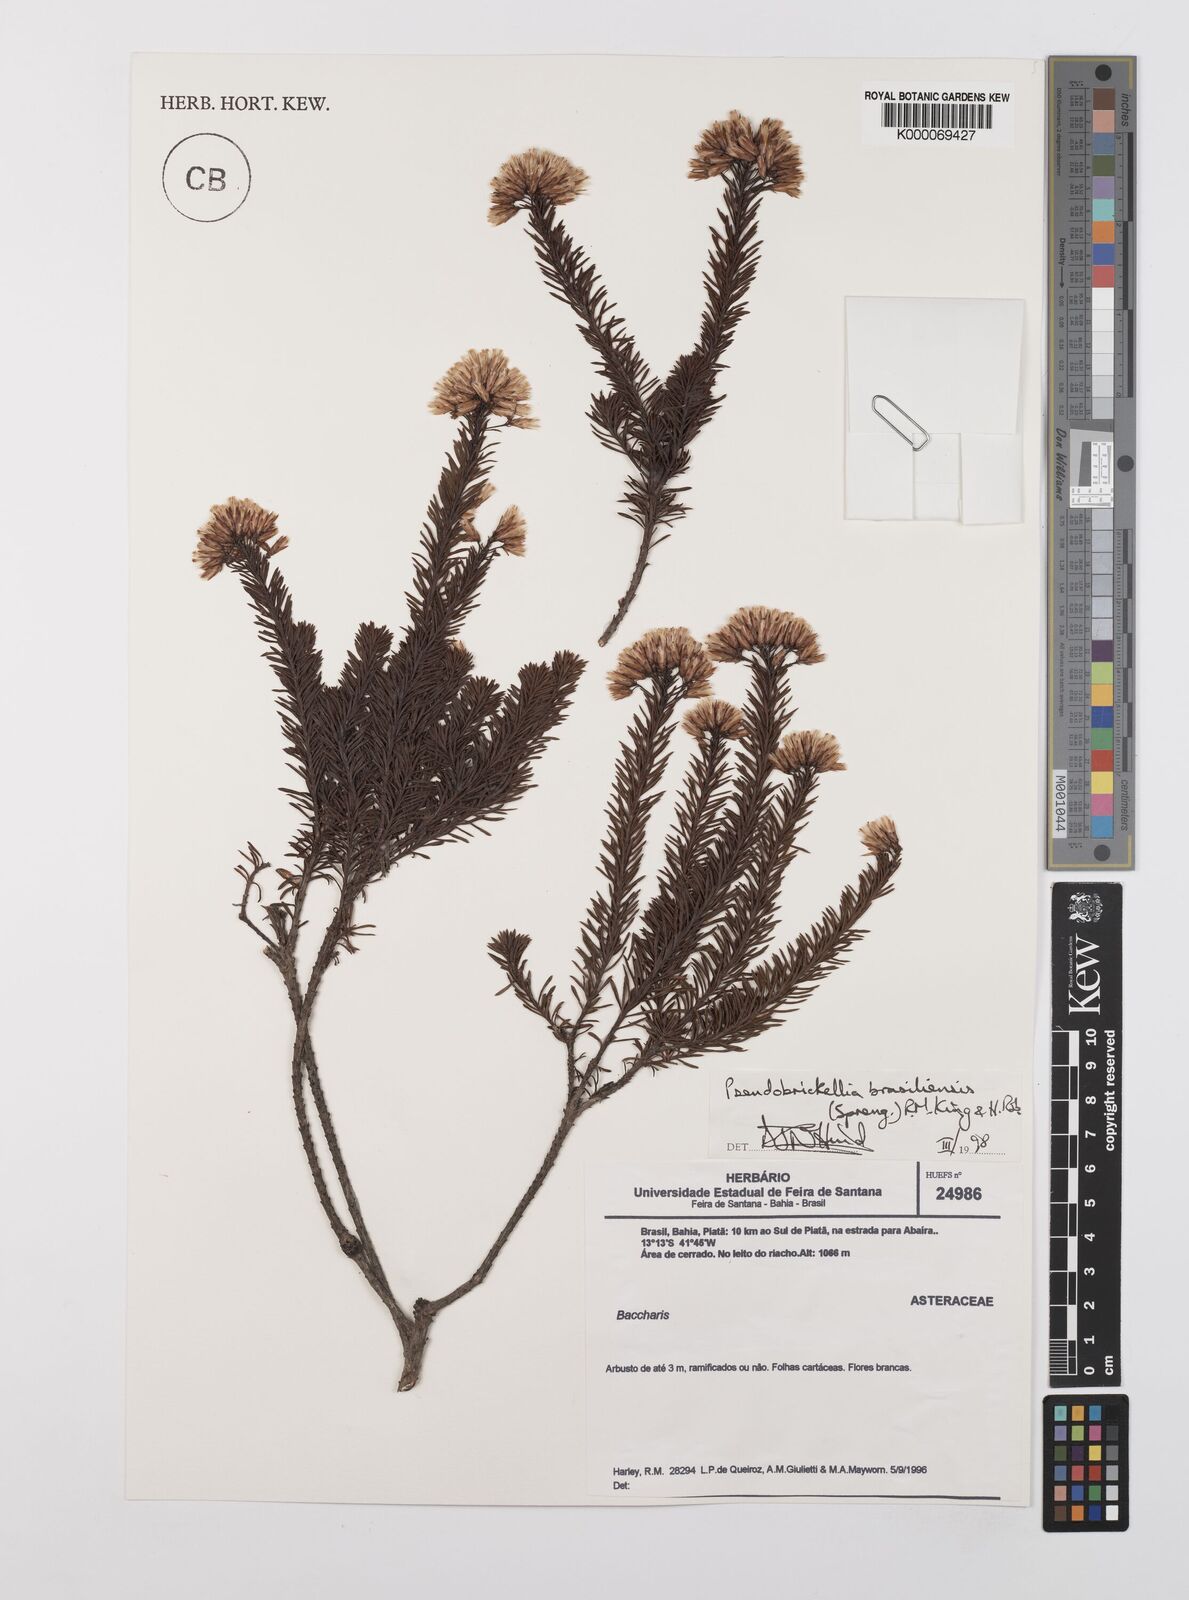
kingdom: Plantae
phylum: Tracheophyta
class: Magnoliopsida
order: Asterales
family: Asteraceae
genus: Pseudobrickellia
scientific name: Pseudobrickellia brasiliensis
